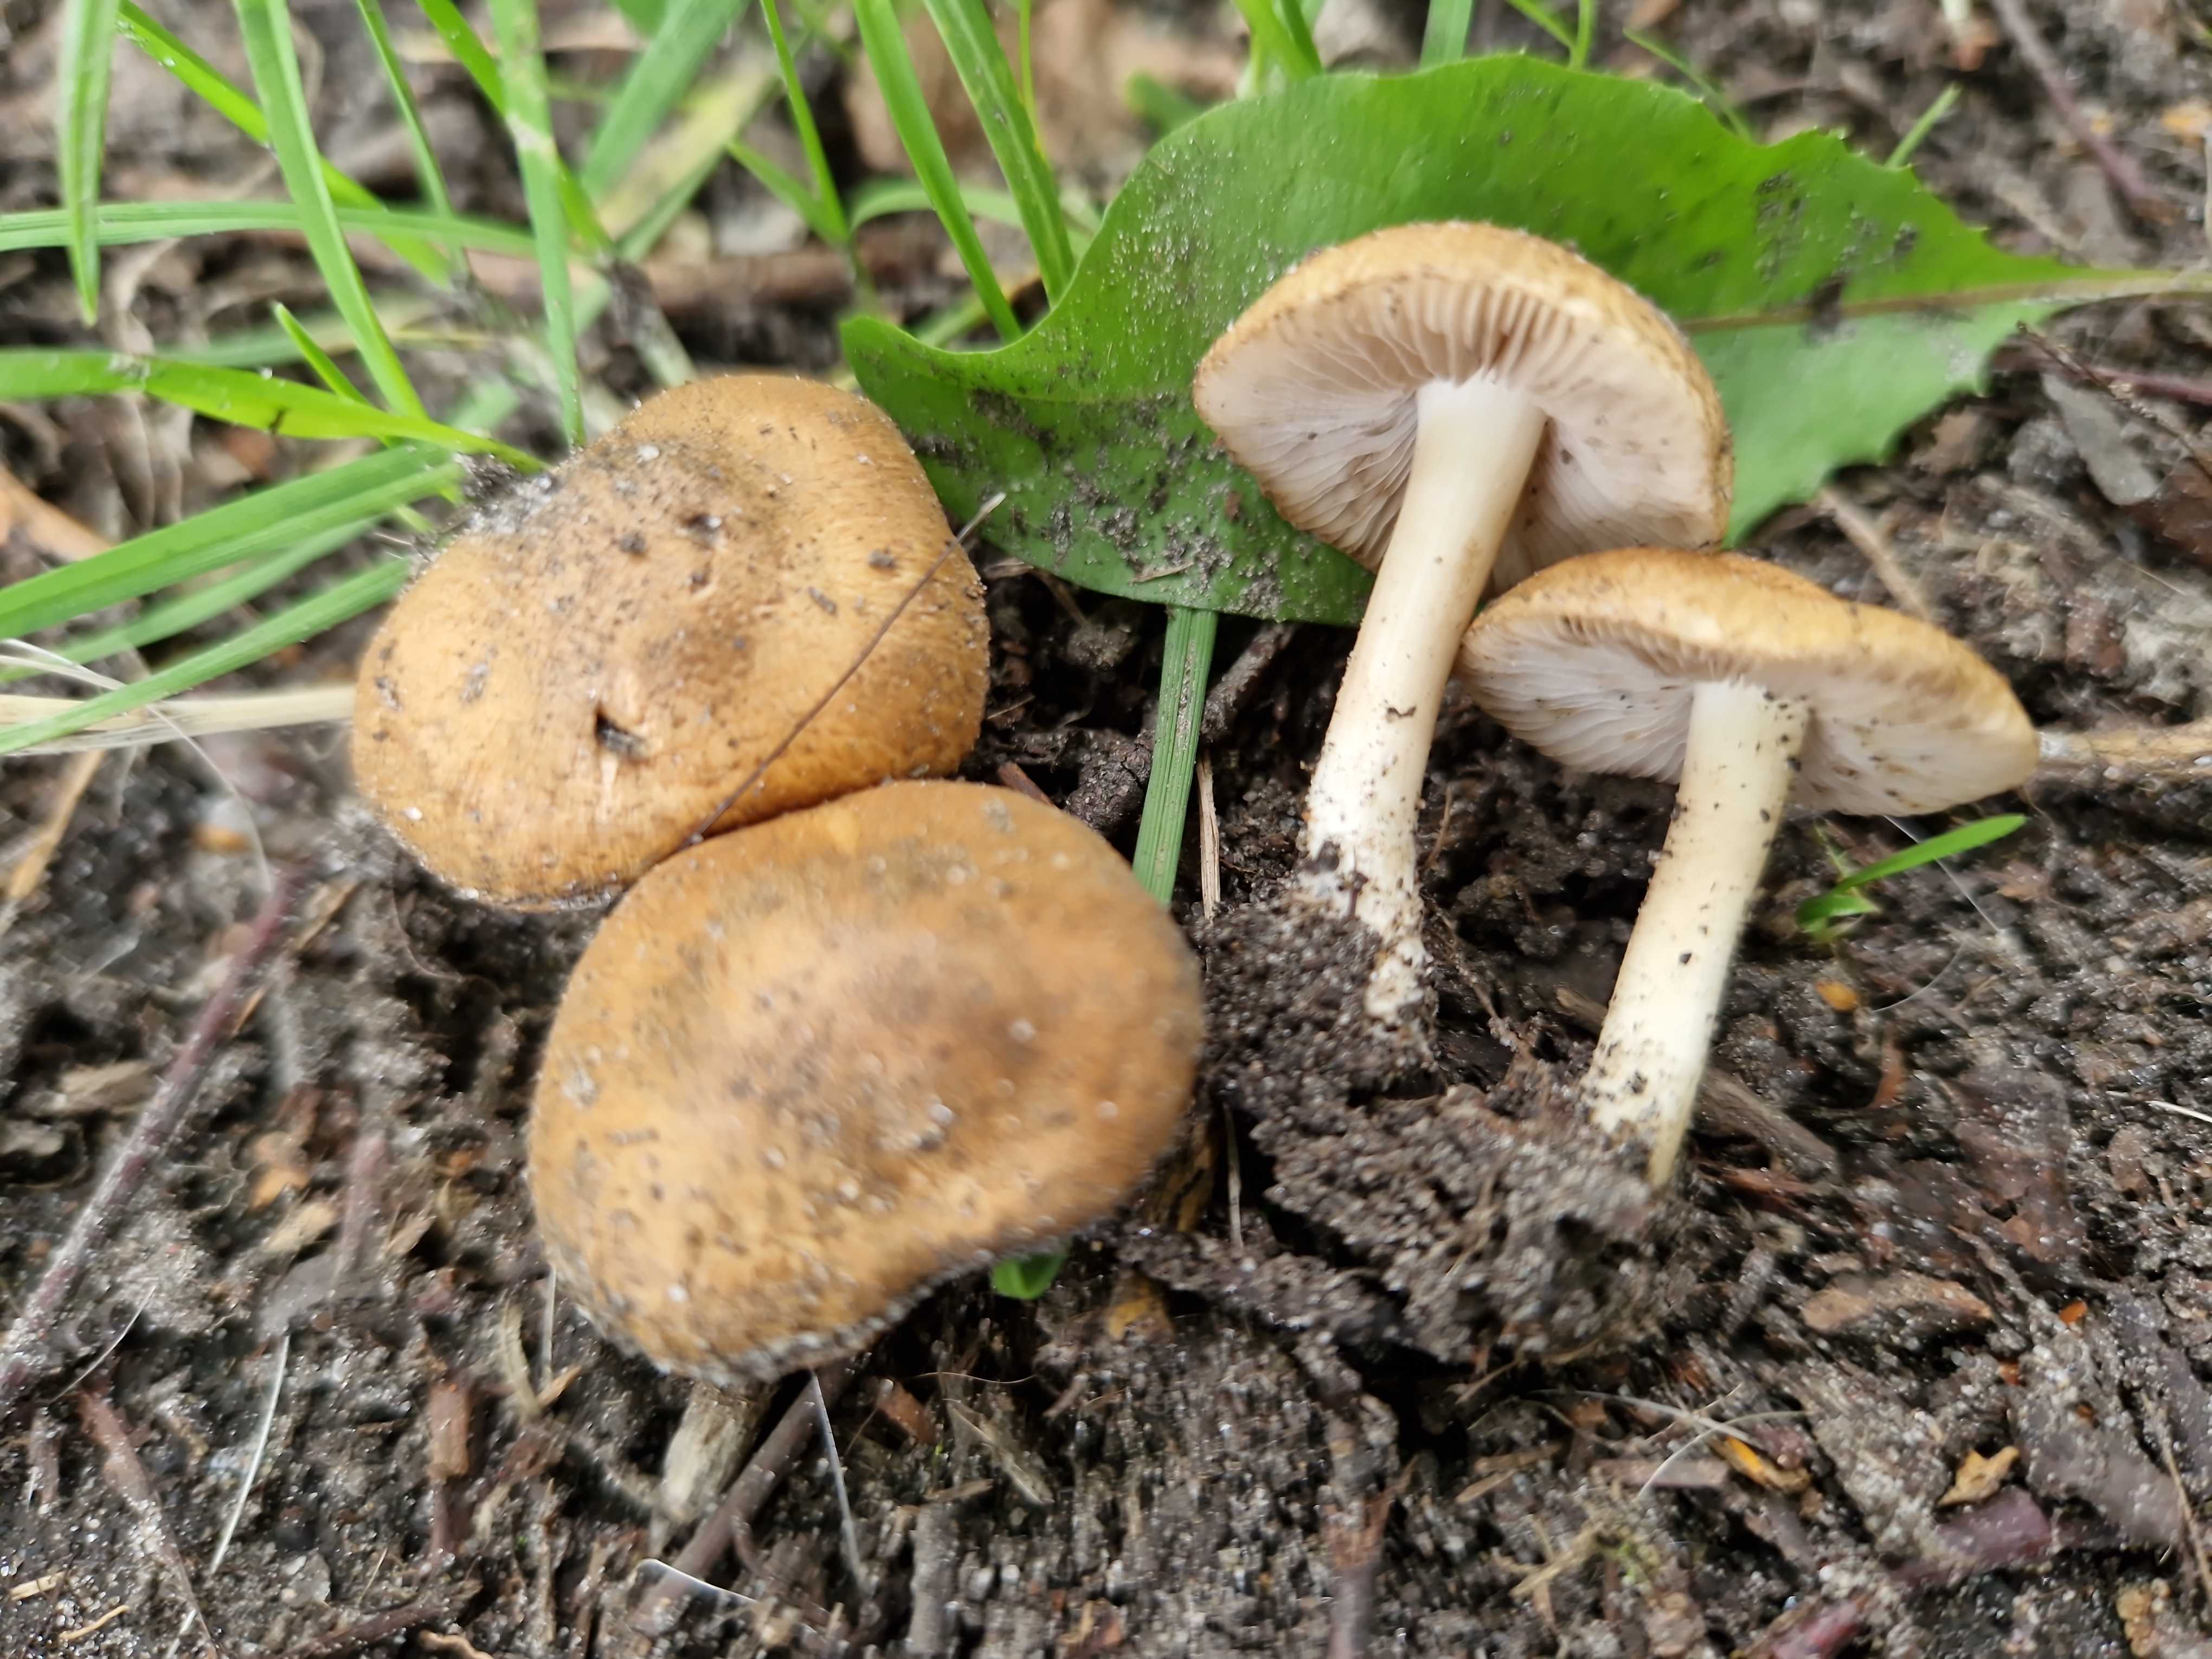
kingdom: Fungi
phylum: Basidiomycota
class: Agaricomycetes
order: Agaricales
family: Inocybaceae
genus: Inocybe
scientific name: Inocybe
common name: trævlhat
